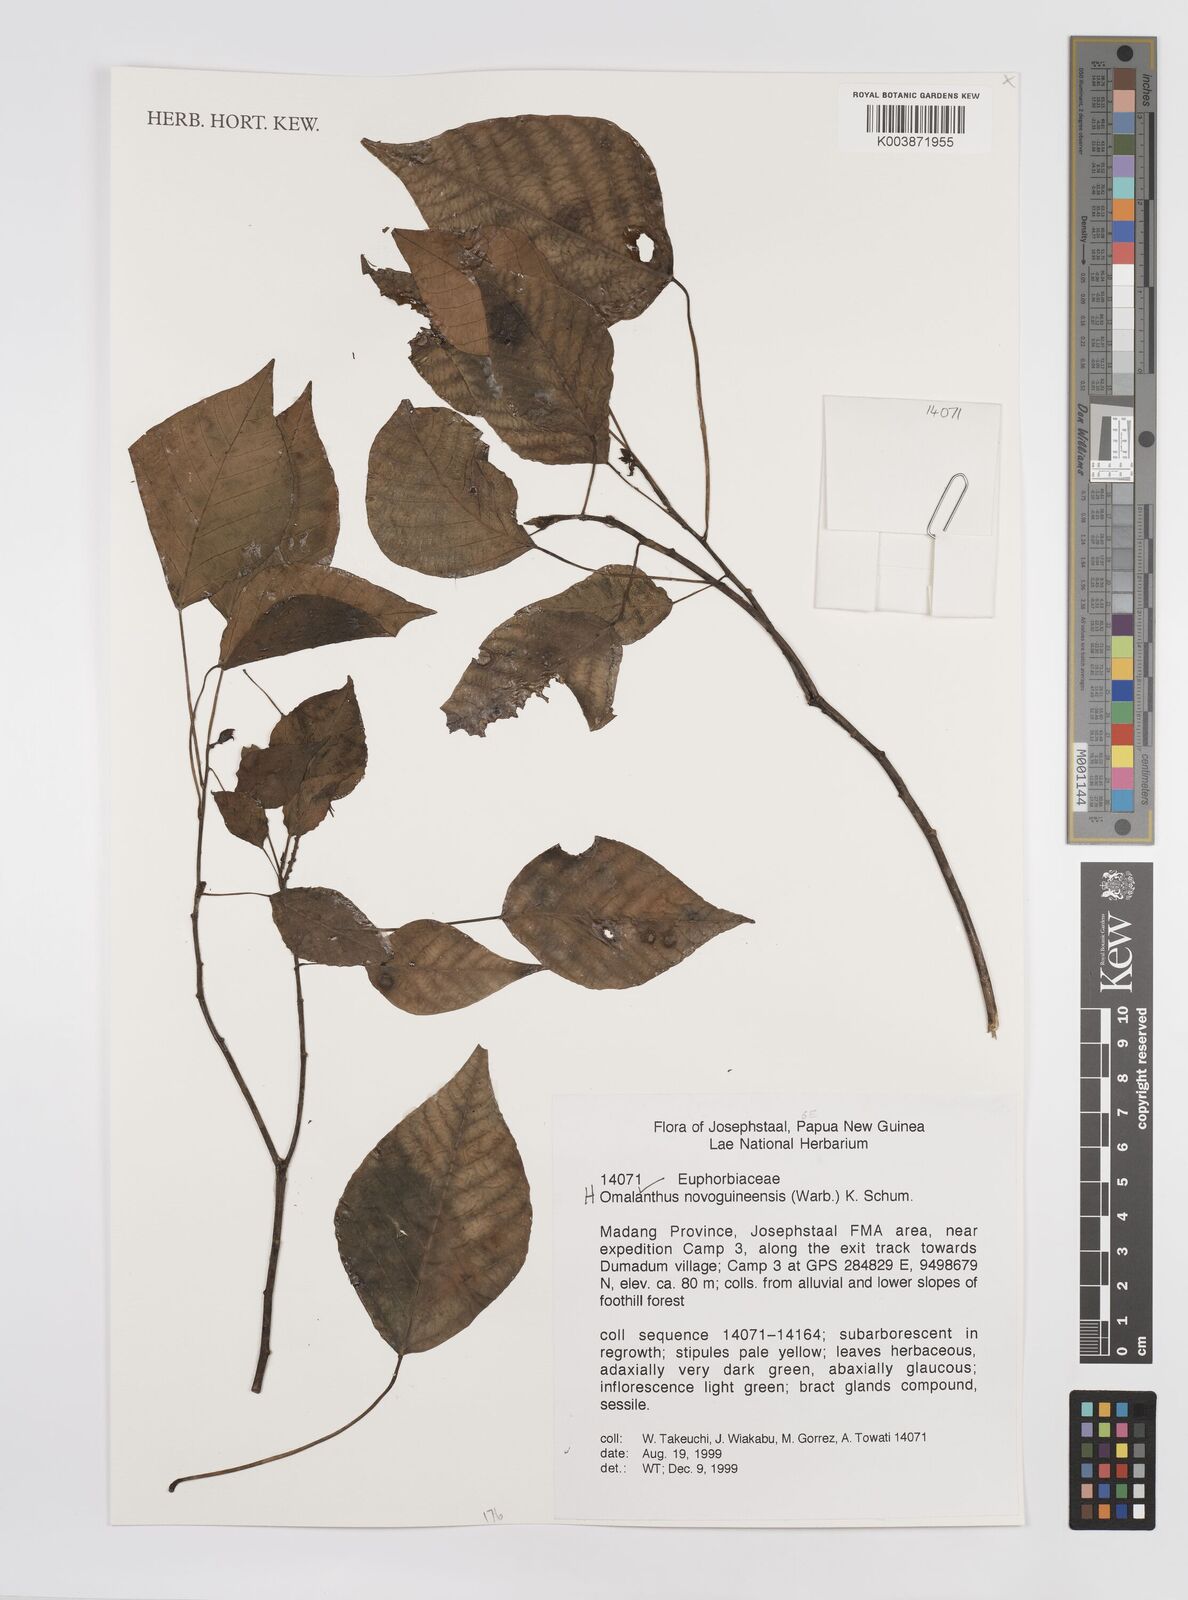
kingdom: Plantae
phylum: Tracheophyta
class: Magnoliopsida
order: Malpighiales
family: Euphorbiaceae
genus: Homalanthus
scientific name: Homalanthus novoguineensis
